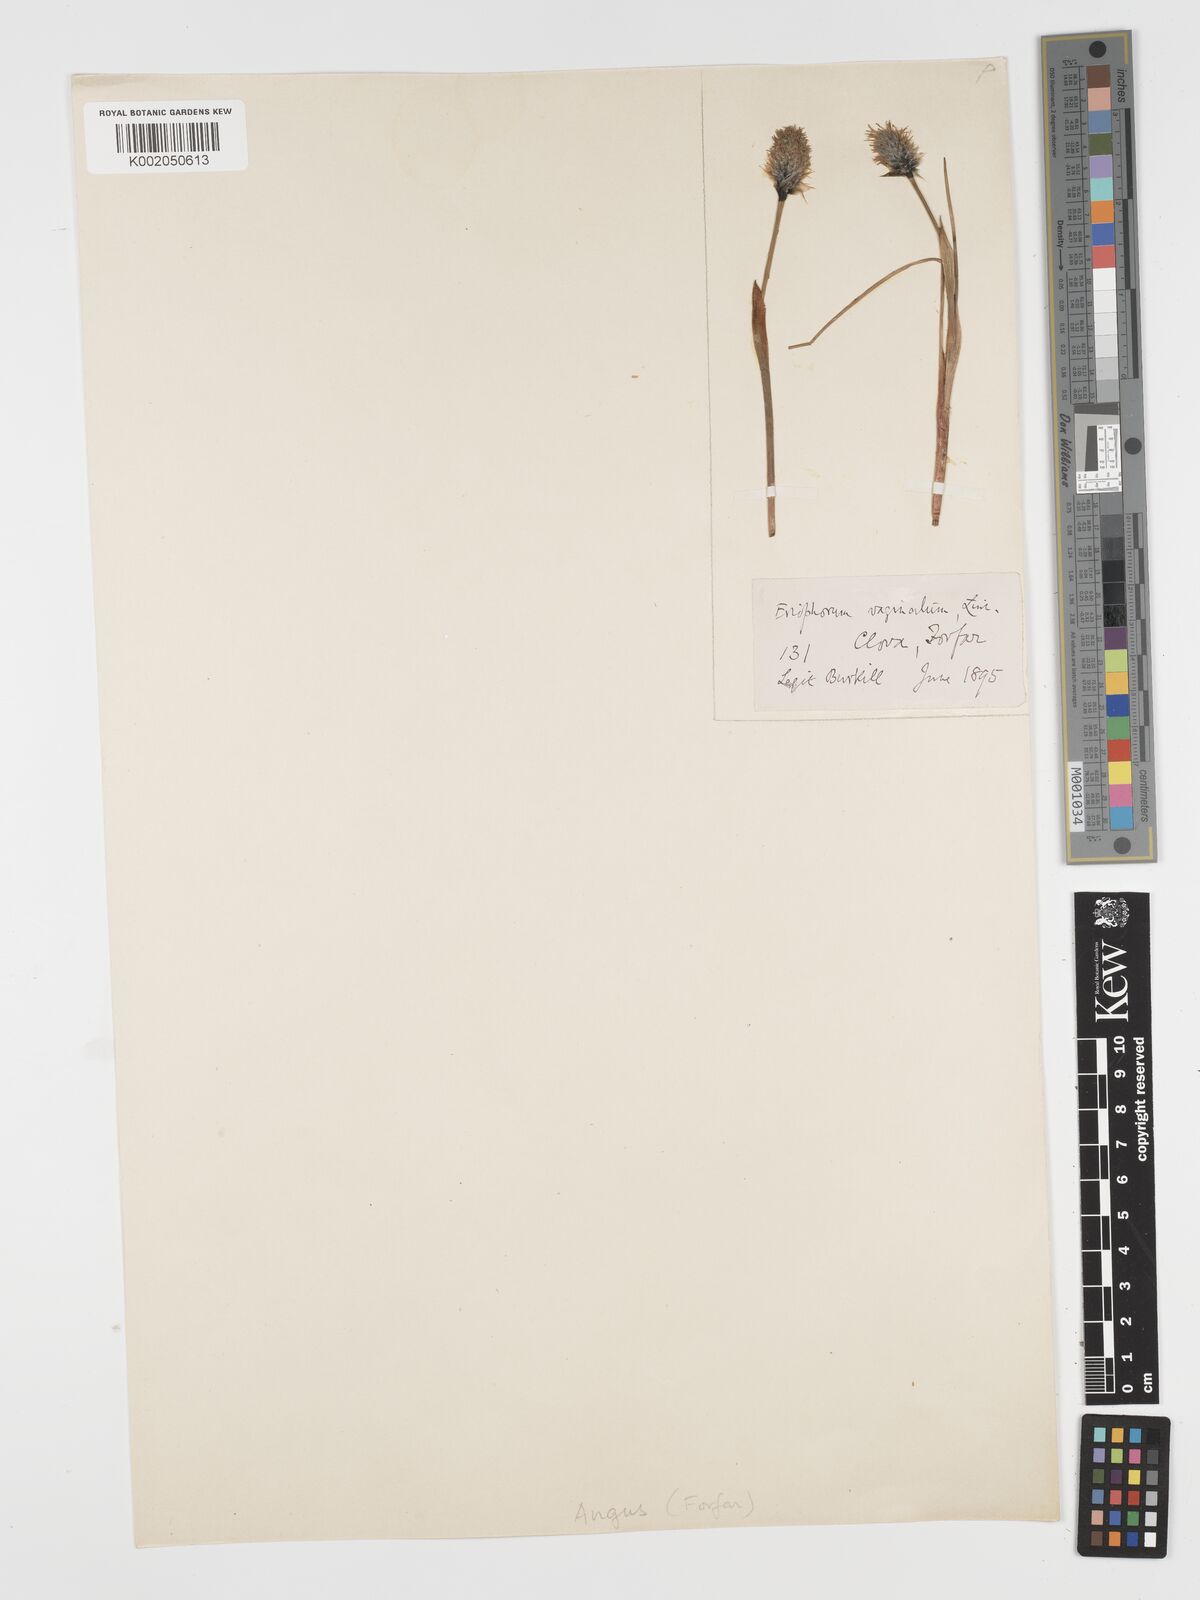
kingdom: Plantae
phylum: Tracheophyta
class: Liliopsida
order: Poales
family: Cyperaceae
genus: Eriophorum
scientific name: Eriophorum vaginatum
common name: Hare's-tail cottongrass
